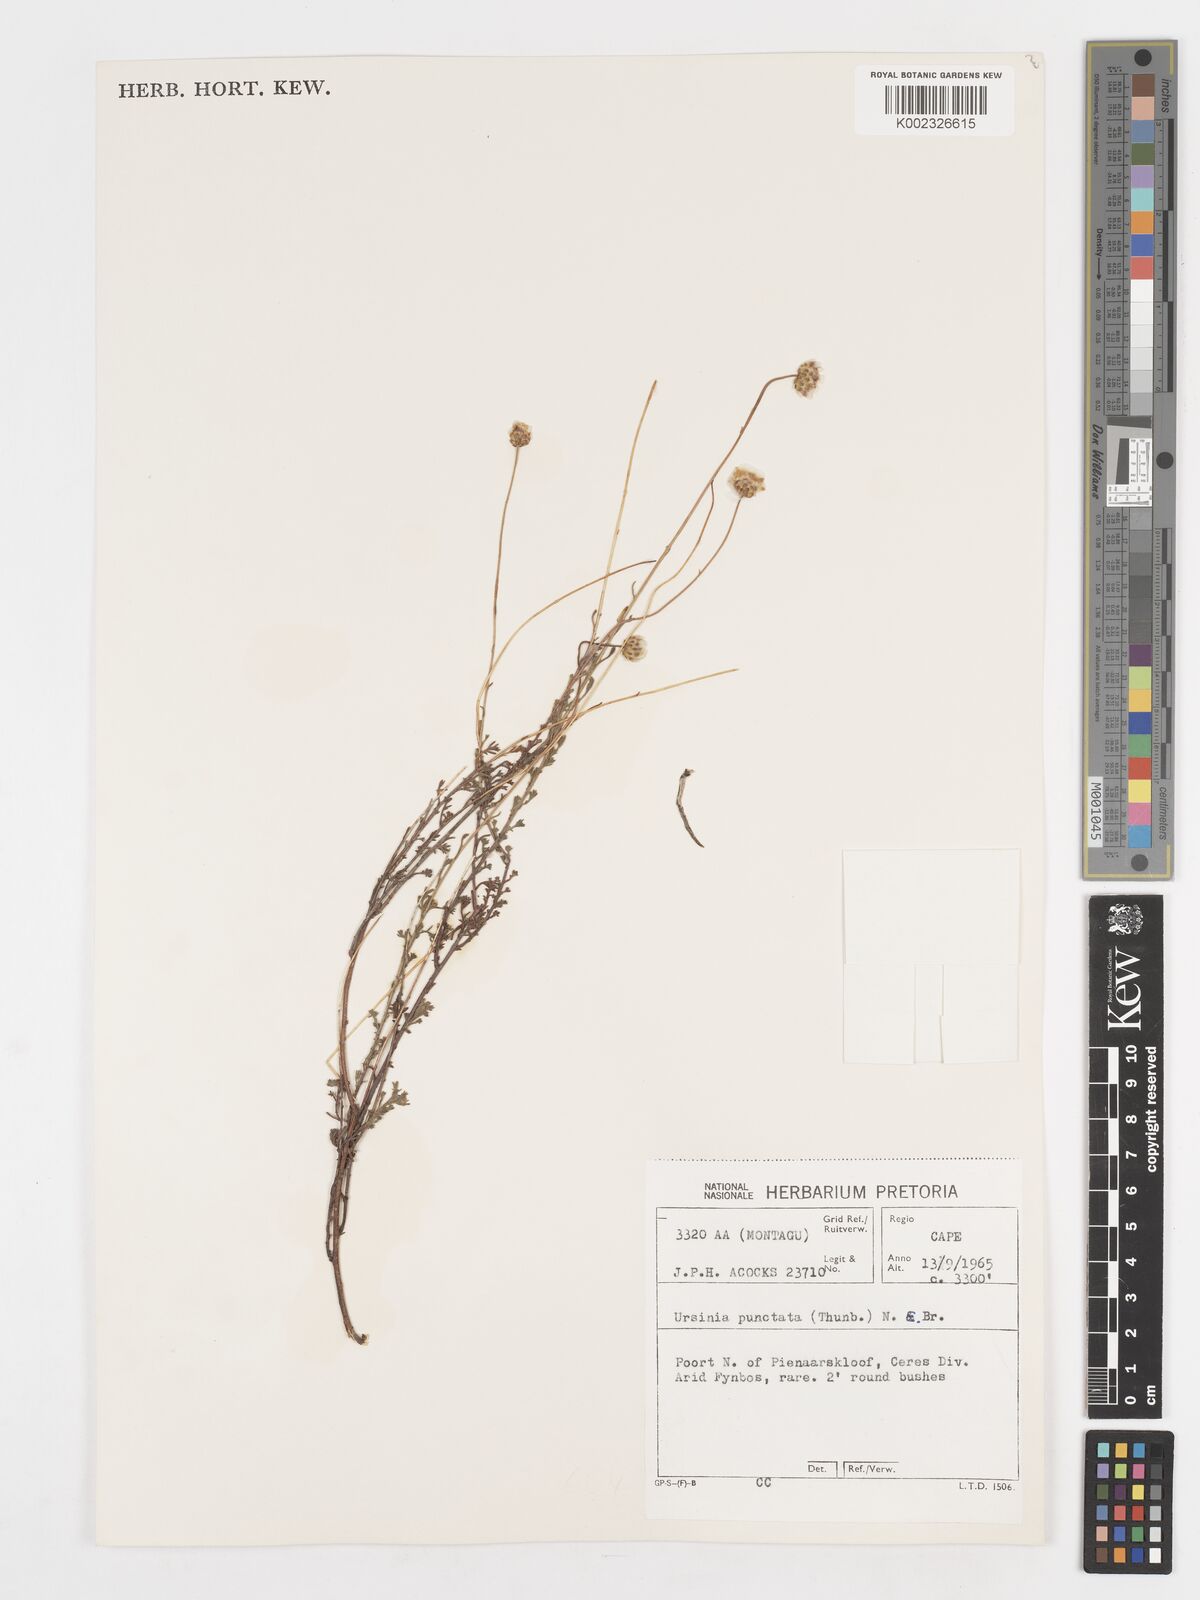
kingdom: Plantae
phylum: Tracheophyta
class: Magnoliopsida
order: Asterales
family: Asteraceae
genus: Ursinia
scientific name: Ursinia punctata
